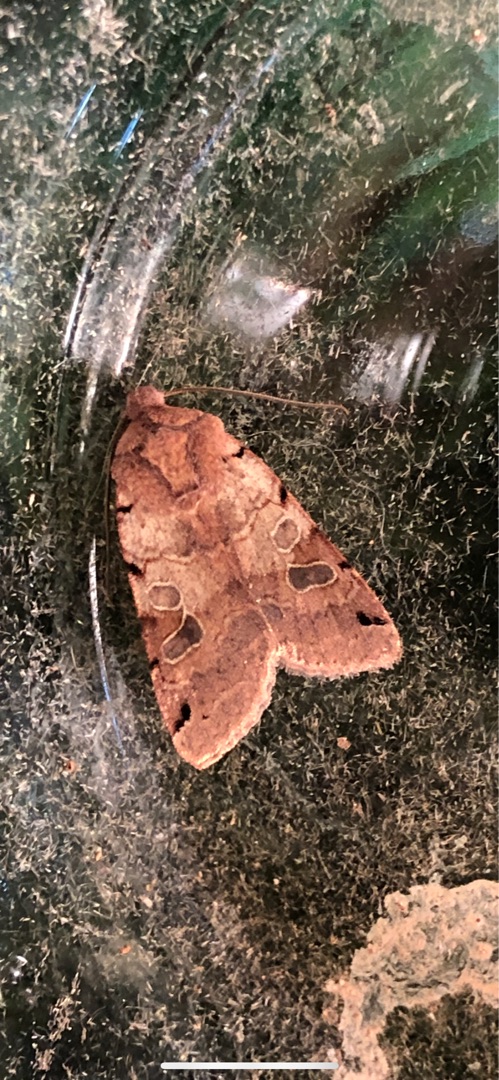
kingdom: Animalia
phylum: Arthropoda
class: Insecta
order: Lepidoptera
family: Noctuidae
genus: Agrochola
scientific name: Agrochola litura
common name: Kantplettet jordfarveugle
